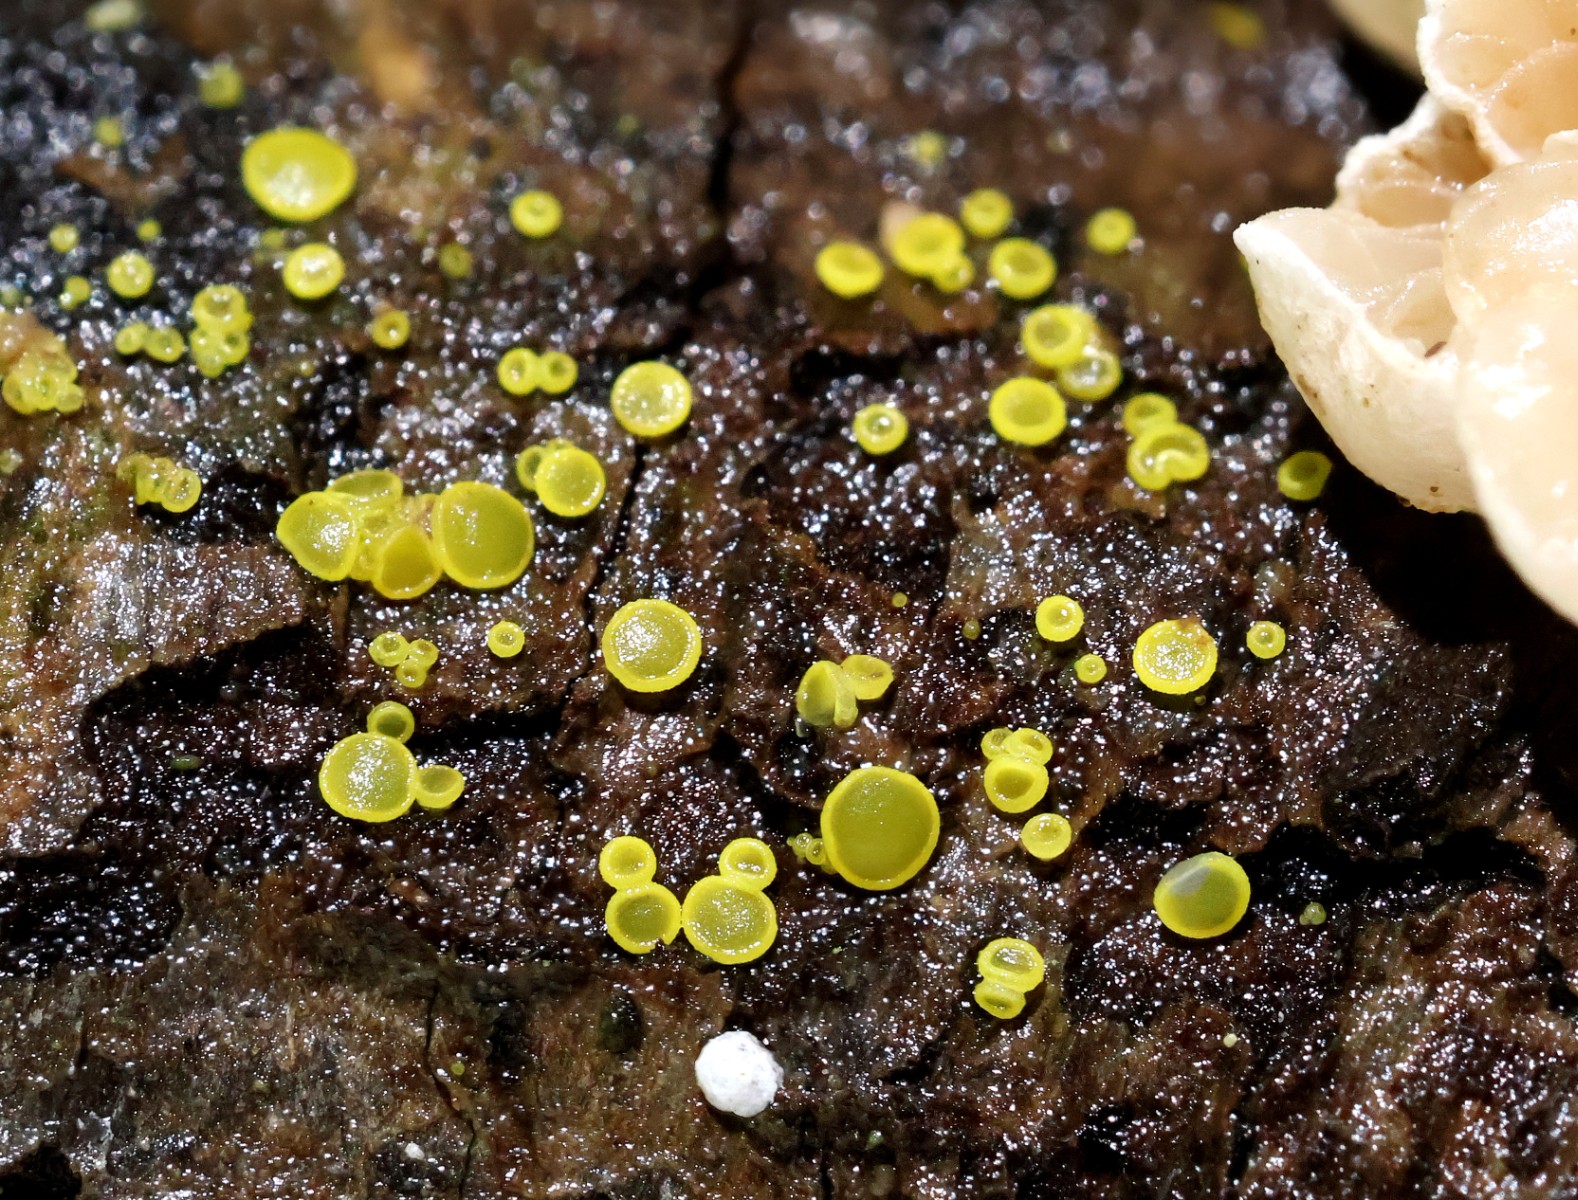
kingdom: Fungi
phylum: Ascomycota
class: Leotiomycetes
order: Helotiales
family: Pezizellaceae
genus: Calycina
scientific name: Calycina claroflava
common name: snyltende gulskive
